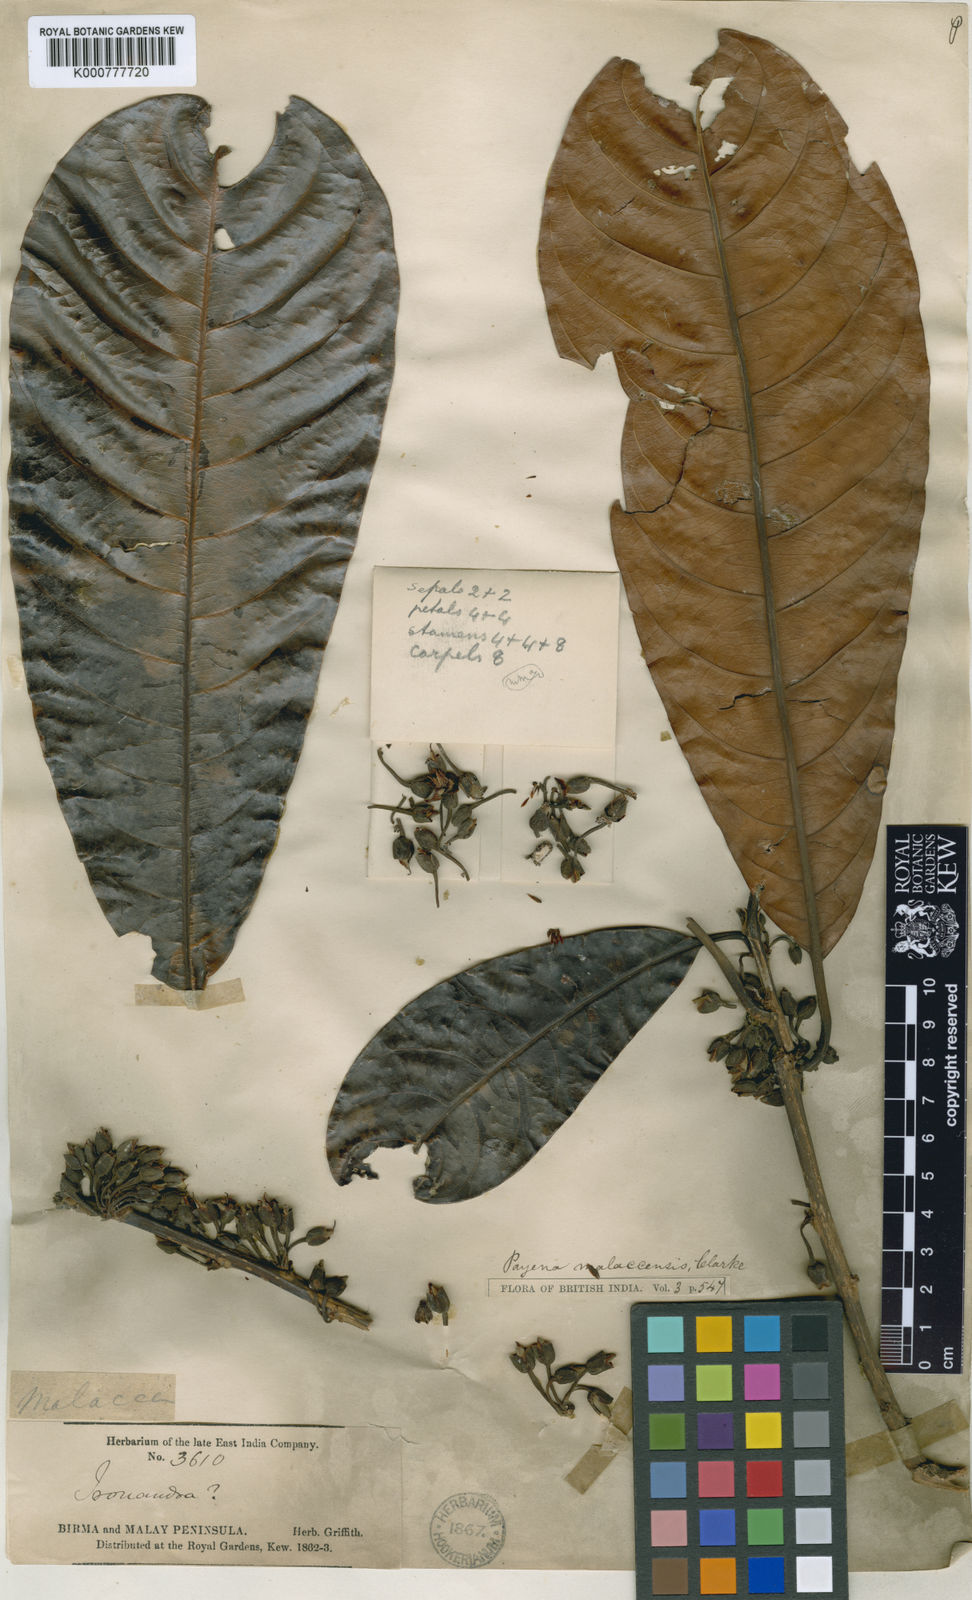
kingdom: Plantae
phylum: Tracheophyta
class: Magnoliopsida
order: Ericales
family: Sapotaceae
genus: Madhuca
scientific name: Madhuca malaccensis
